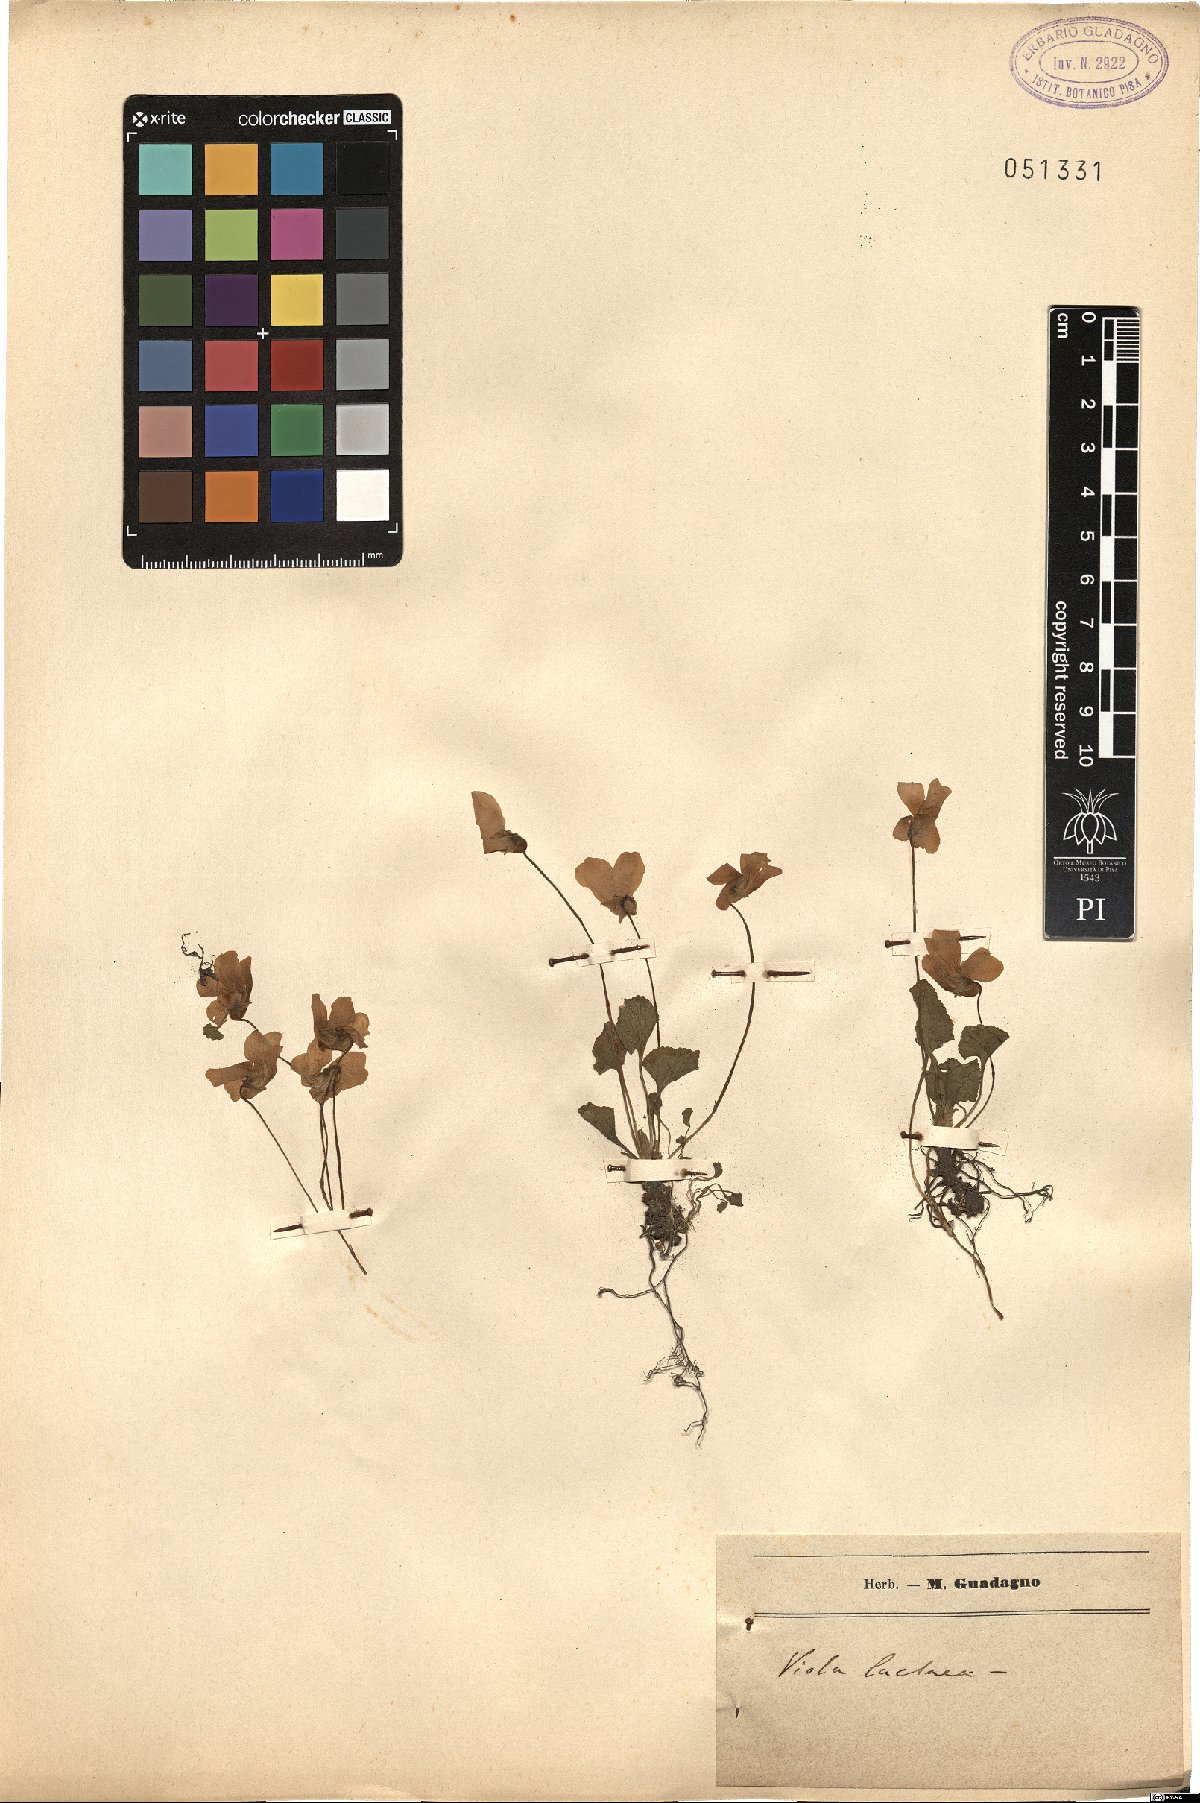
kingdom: Plantae
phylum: Tracheophyta
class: Magnoliopsida
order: Malpighiales
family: Violaceae
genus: Viola
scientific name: Viola lactea
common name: Pale dog-violet
